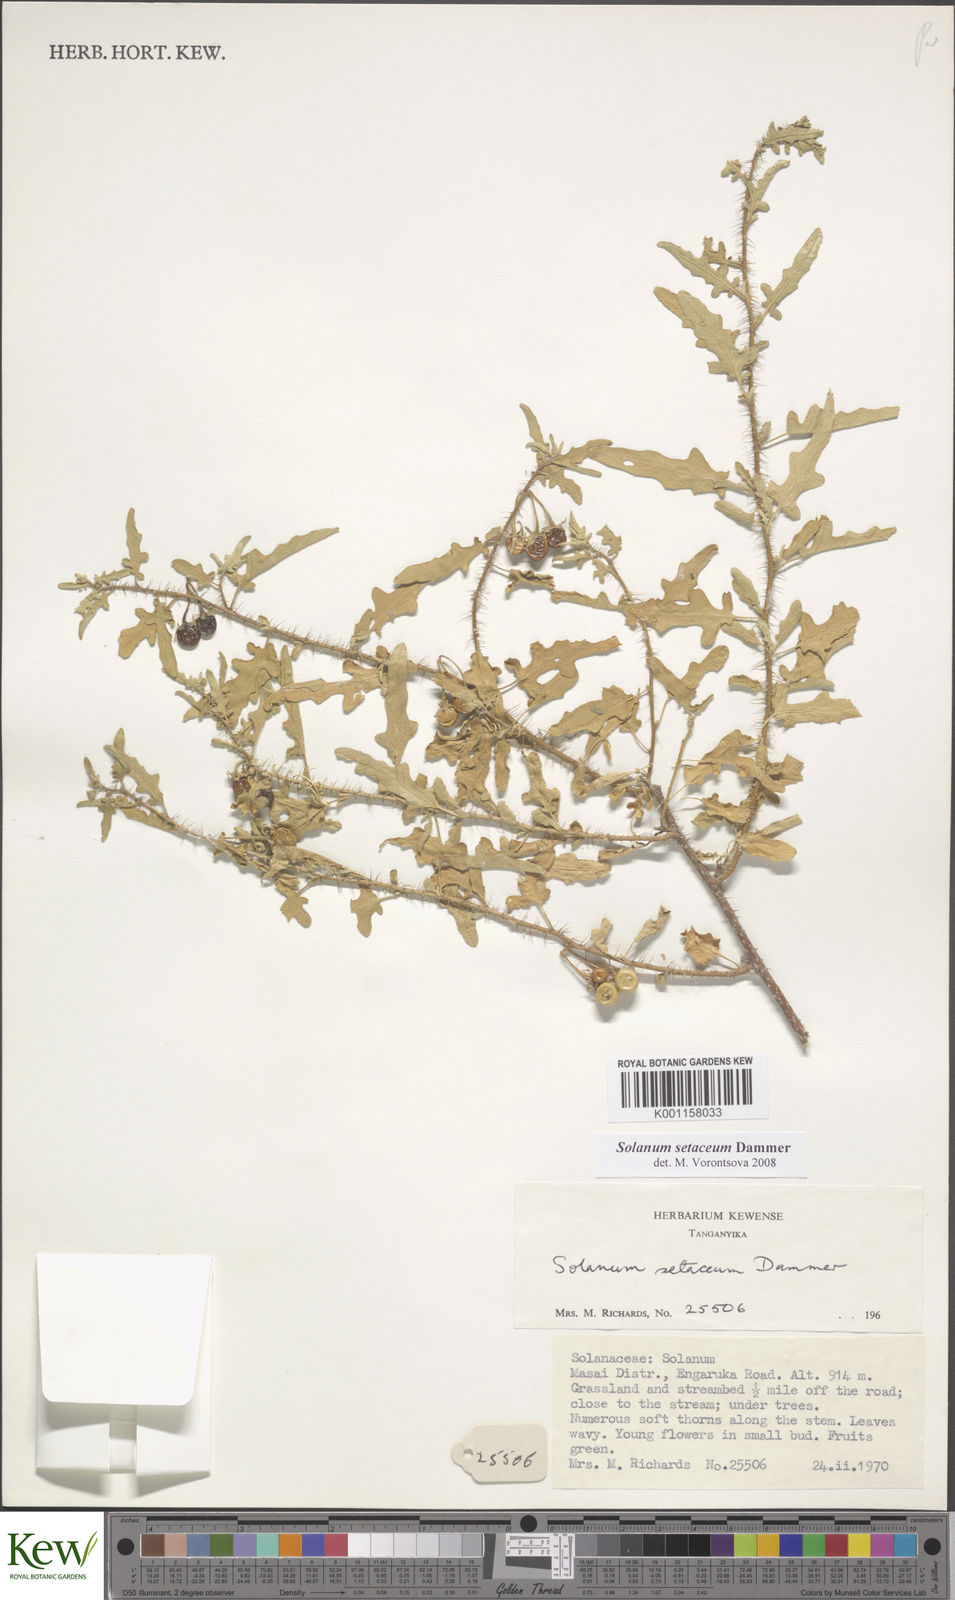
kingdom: Plantae
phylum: Tracheophyta
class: Magnoliopsida
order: Solanales
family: Solanaceae
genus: Solanum
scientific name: Solanum setaceum
